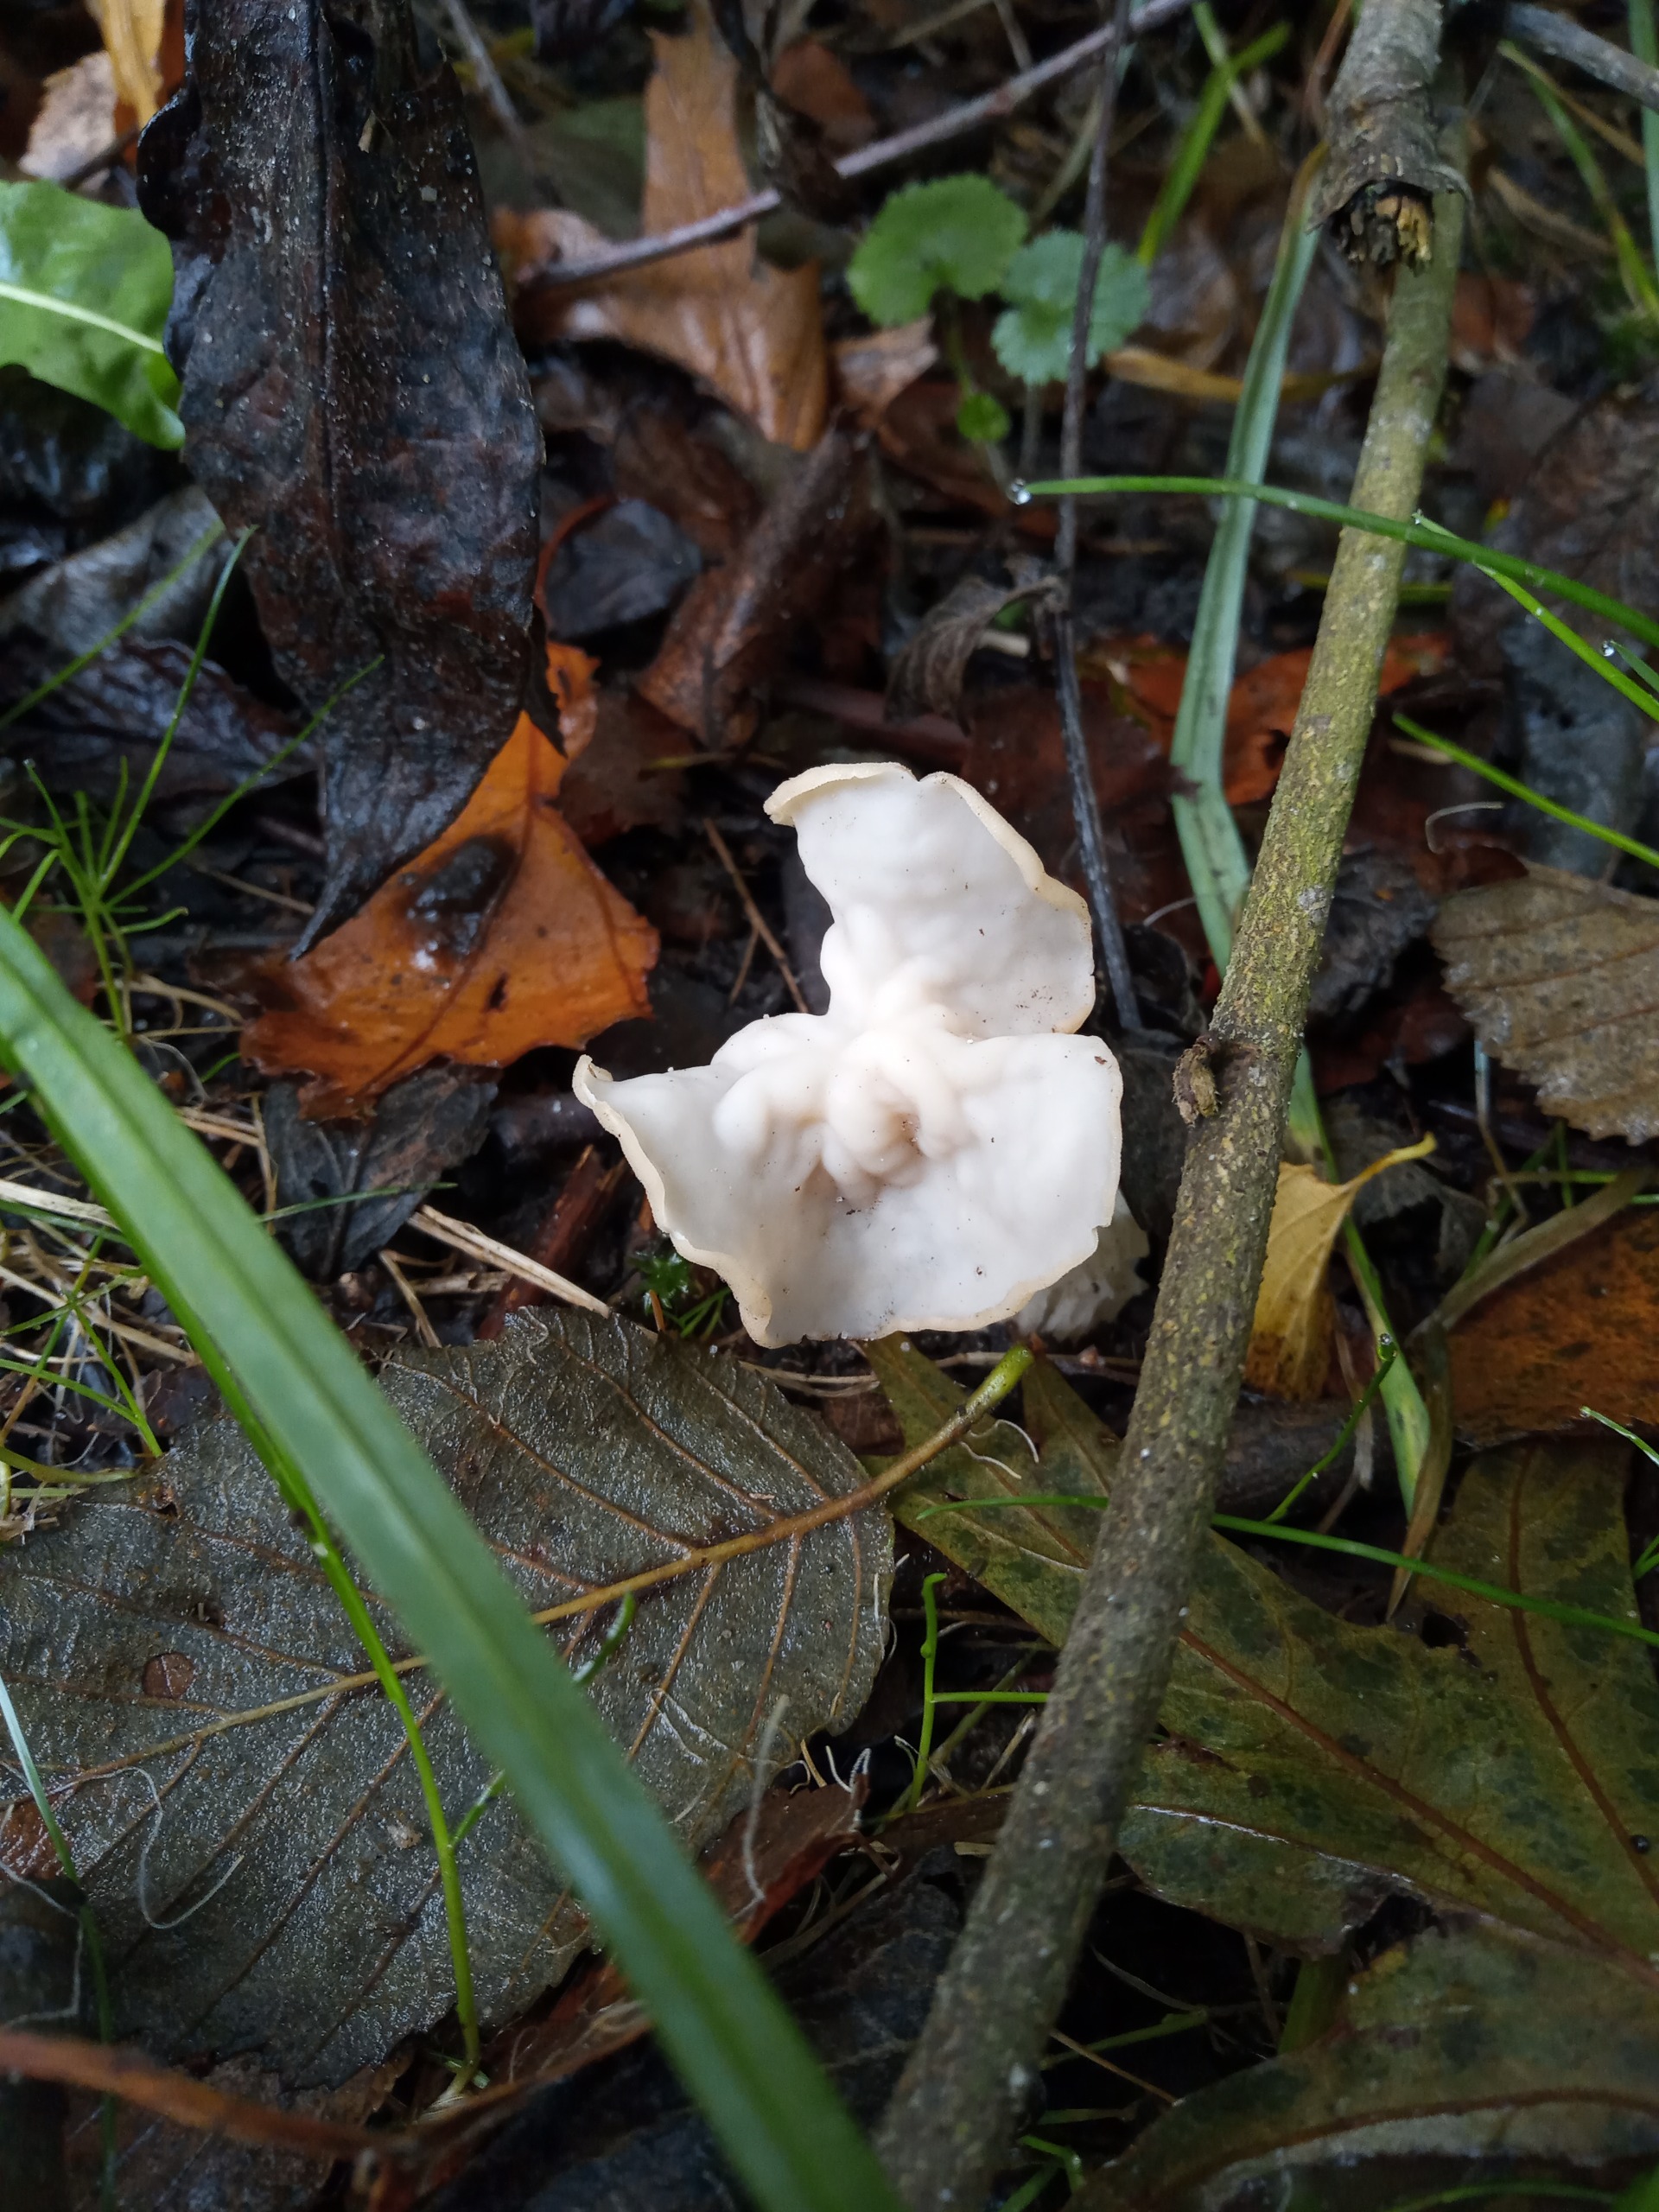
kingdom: Fungi
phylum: Ascomycota
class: Pezizomycetes
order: Pezizales
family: Helvellaceae
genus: Helvella
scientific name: Helvella crispa
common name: Kruset foldhat
